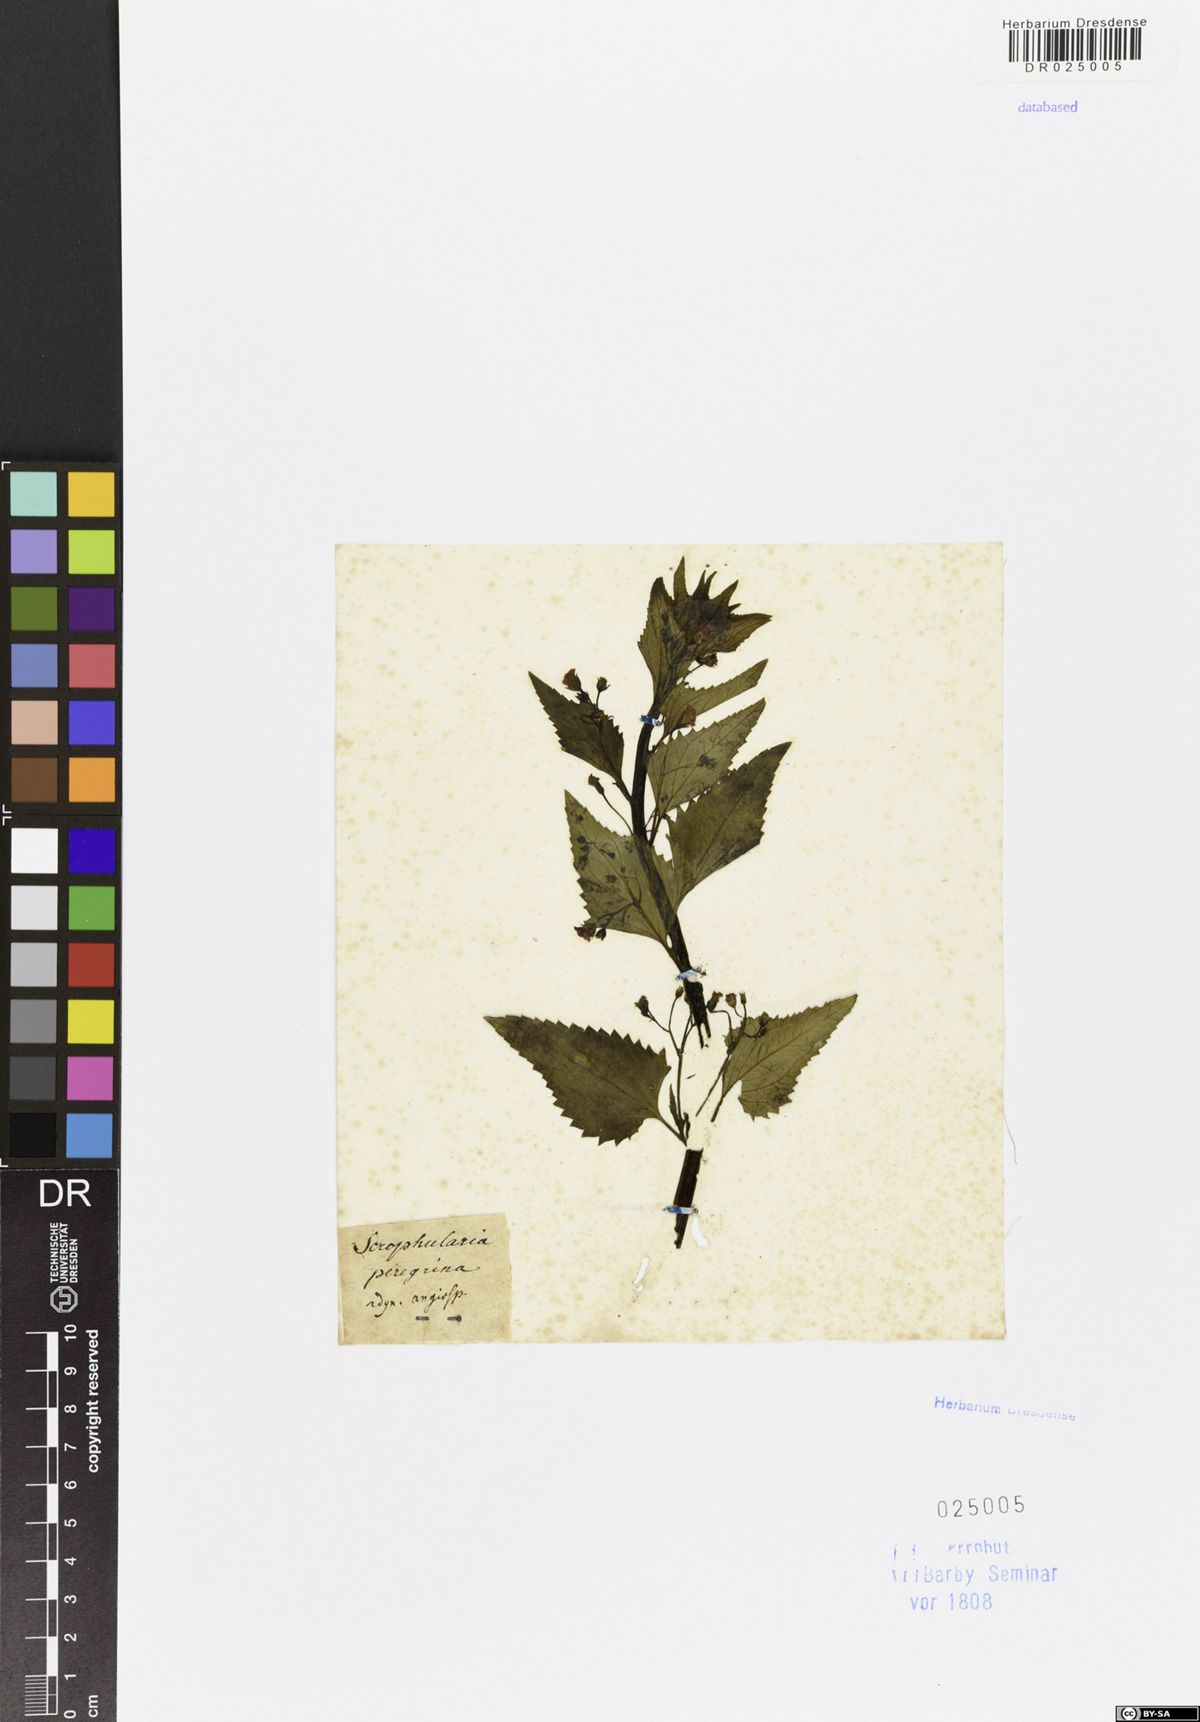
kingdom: Plantae
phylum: Tracheophyta
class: Magnoliopsida
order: Lamiales
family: Scrophulariaceae
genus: Scrophularia
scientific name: Scrophularia peregrina
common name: Mediterranean figwort
